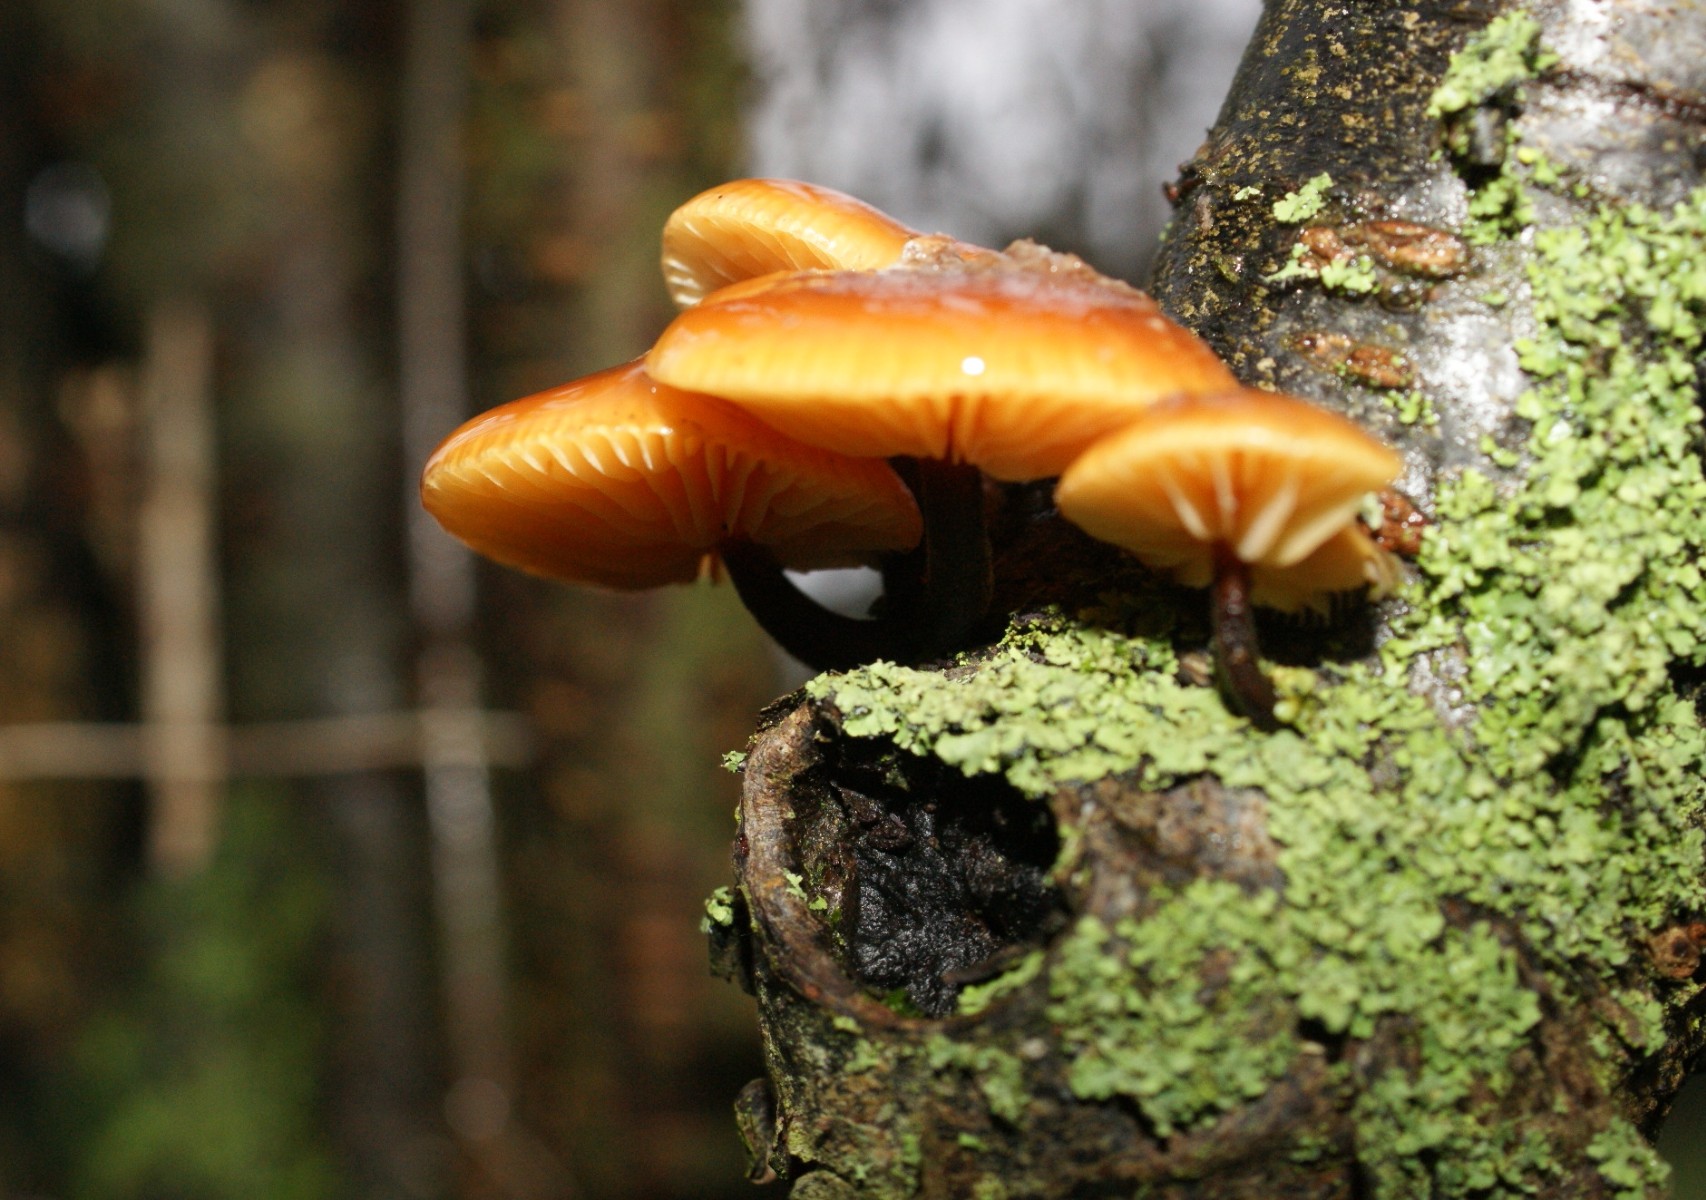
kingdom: Fungi
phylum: Basidiomycota
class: Agaricomycetes
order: Agaricales
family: Physalacriaceae
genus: Flammulina
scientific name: Flammulina velutipes
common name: gul fløjlsfod
